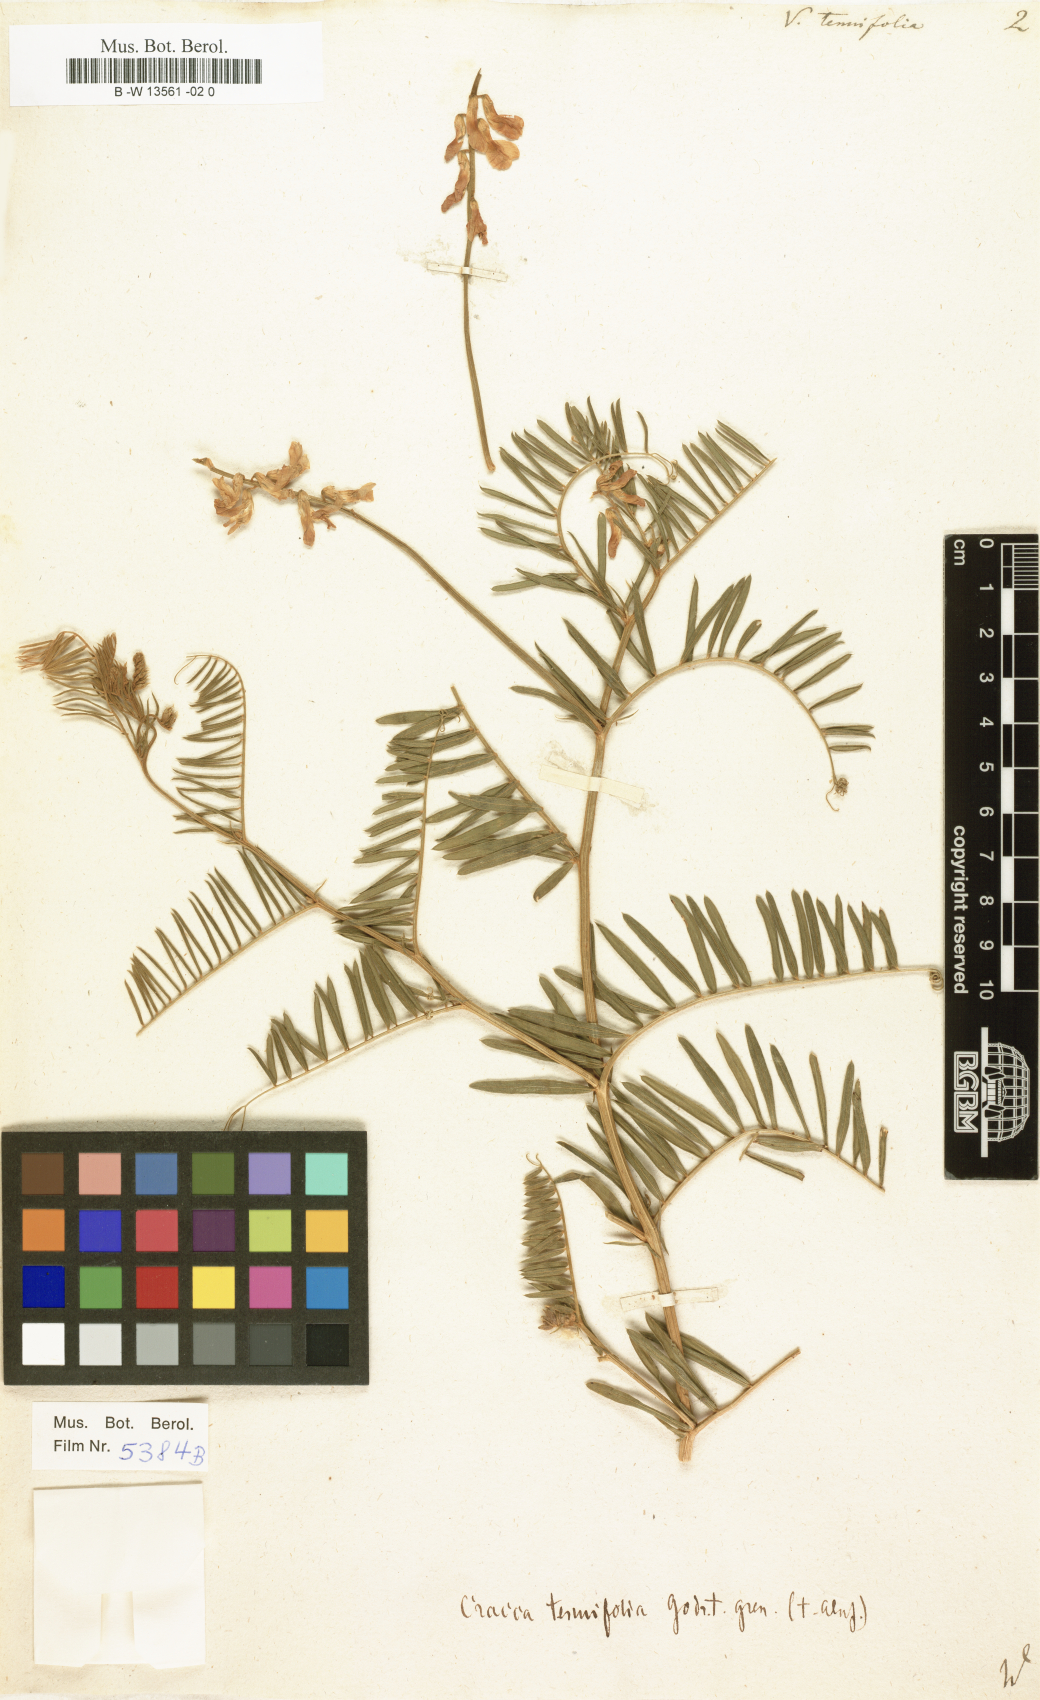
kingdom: Plantae
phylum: Tracheophyta
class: Magnoliopsida
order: Fabales
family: Fabaceae
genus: Vicia
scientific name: Vicia tenuifolia
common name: Fine-leaved vetch
